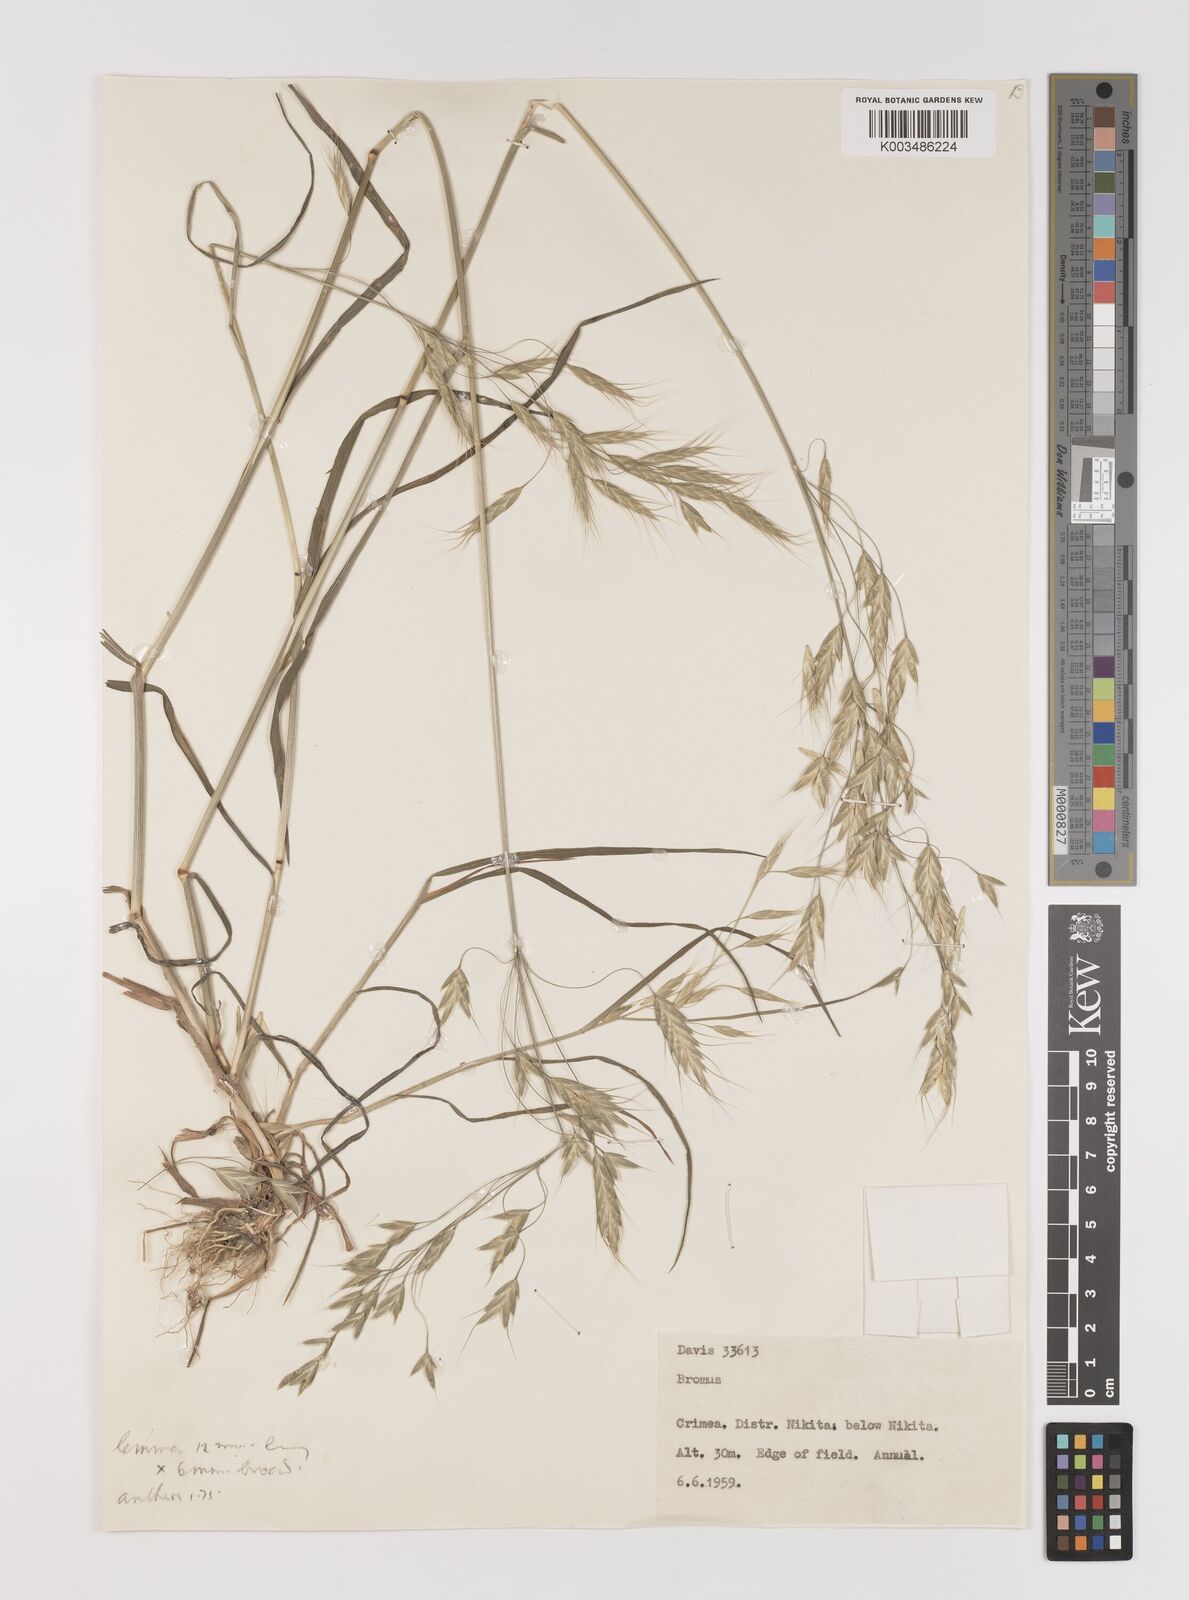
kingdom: Plantae
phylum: Tracheophyta
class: Liliopsida
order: Poales
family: Poaceae
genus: Bromus
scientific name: Bromus
